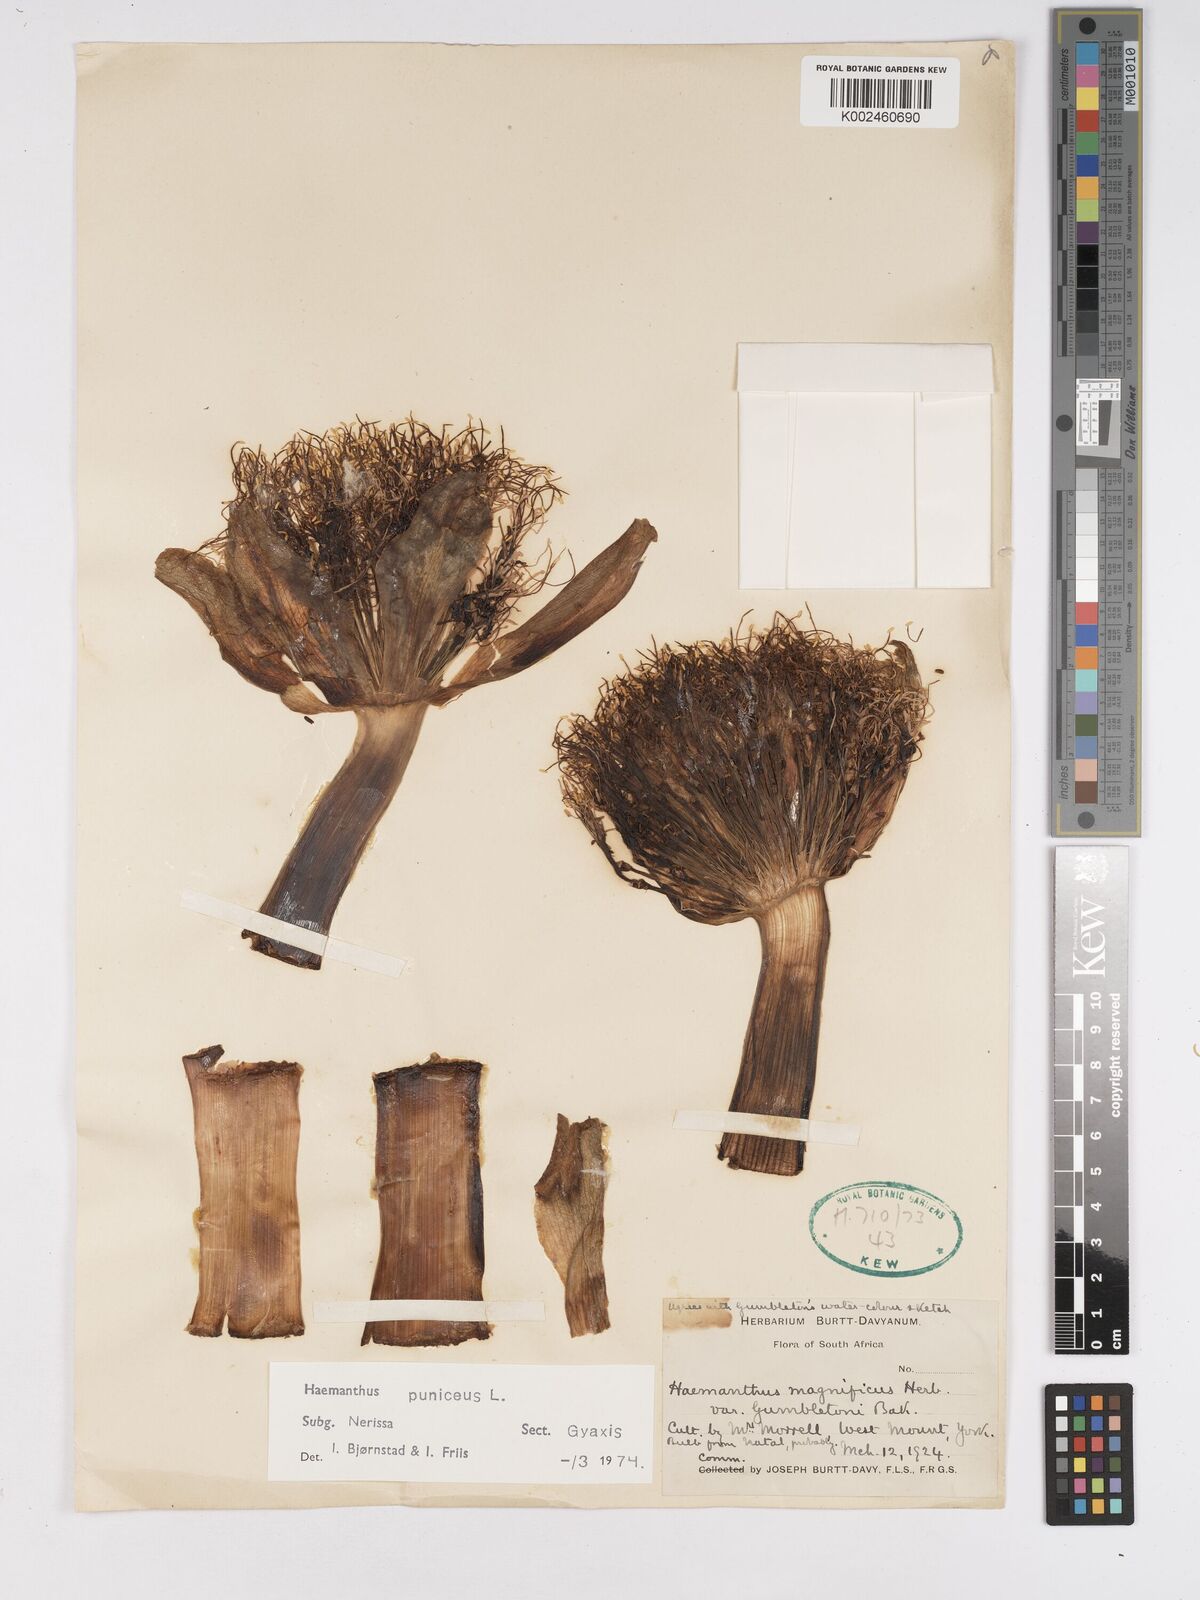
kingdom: Plantae
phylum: Tracheophyta
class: Liliopsida
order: Asparagales
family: Amaryllidaceae
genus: Scadoxus
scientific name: Scadoxus puniceus
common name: Royal-paintbrush
